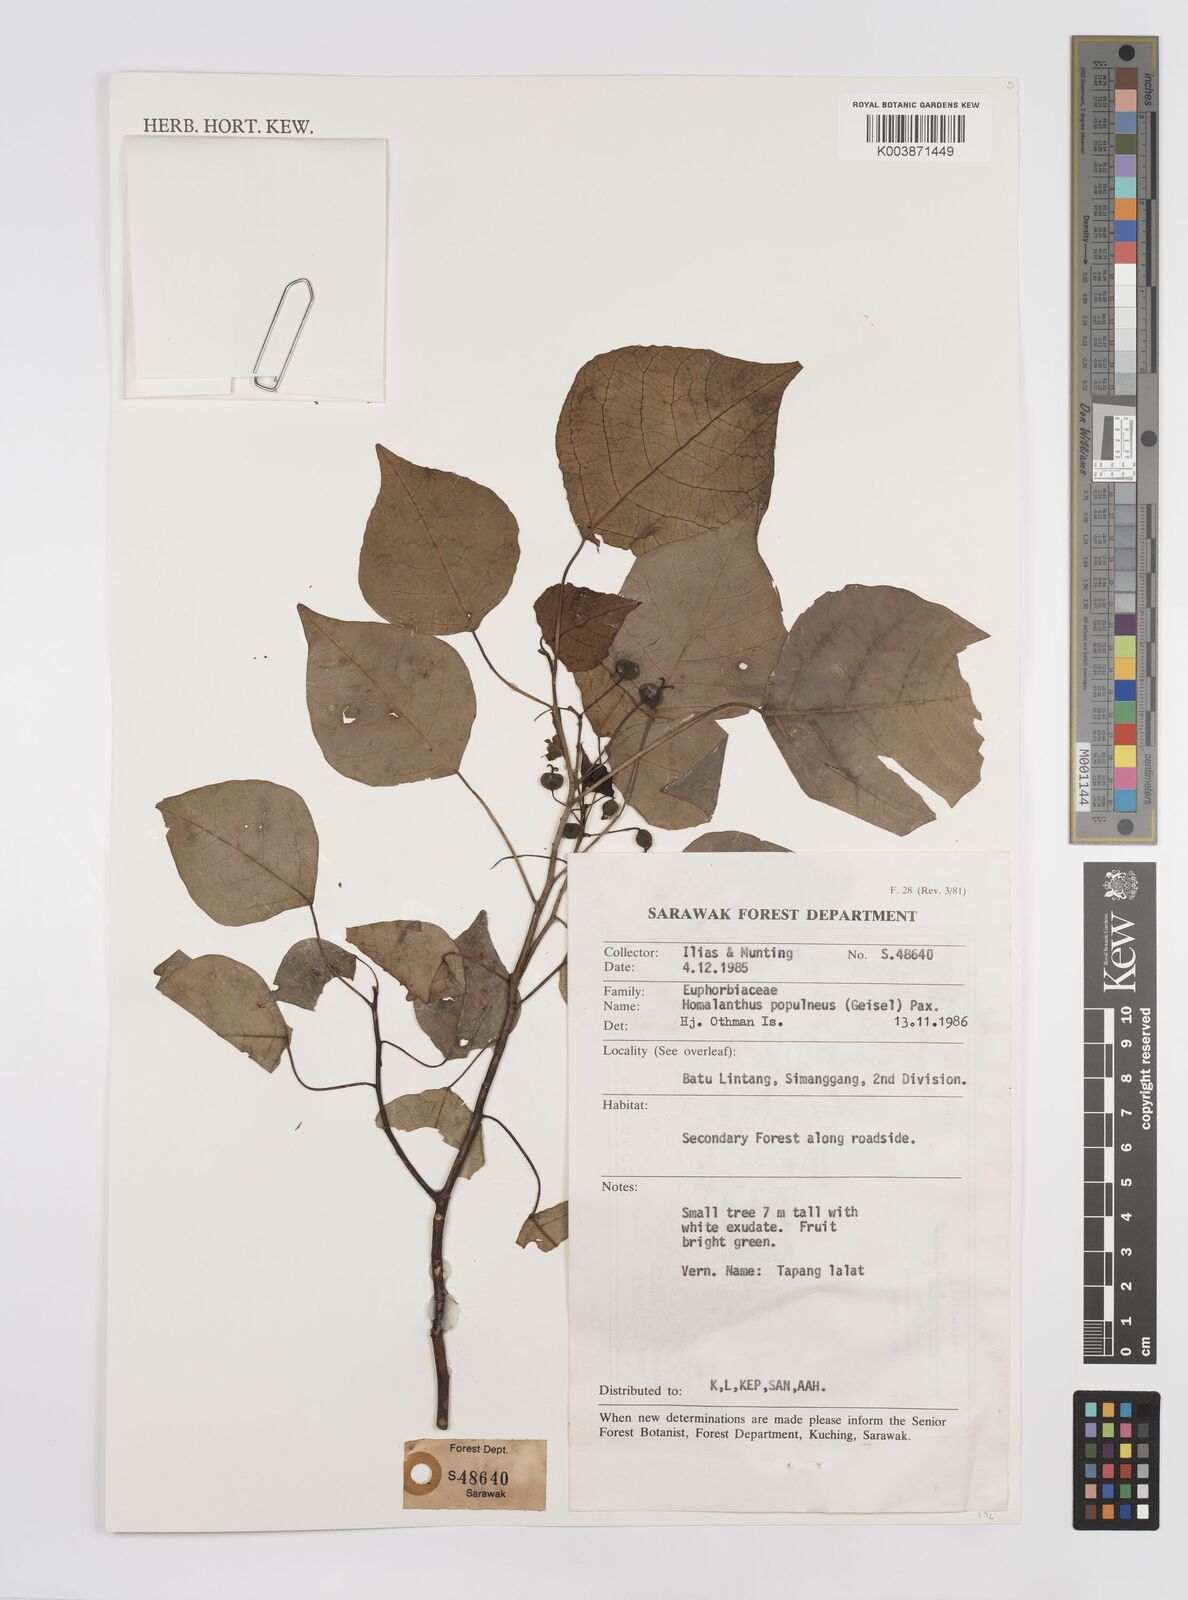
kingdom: Plantae
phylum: Tracheophyta
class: Magnoliopsida
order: Malpighiales
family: Euphorbiaceae
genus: Homalanthus
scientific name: Homalanthus populneus
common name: Spurge
